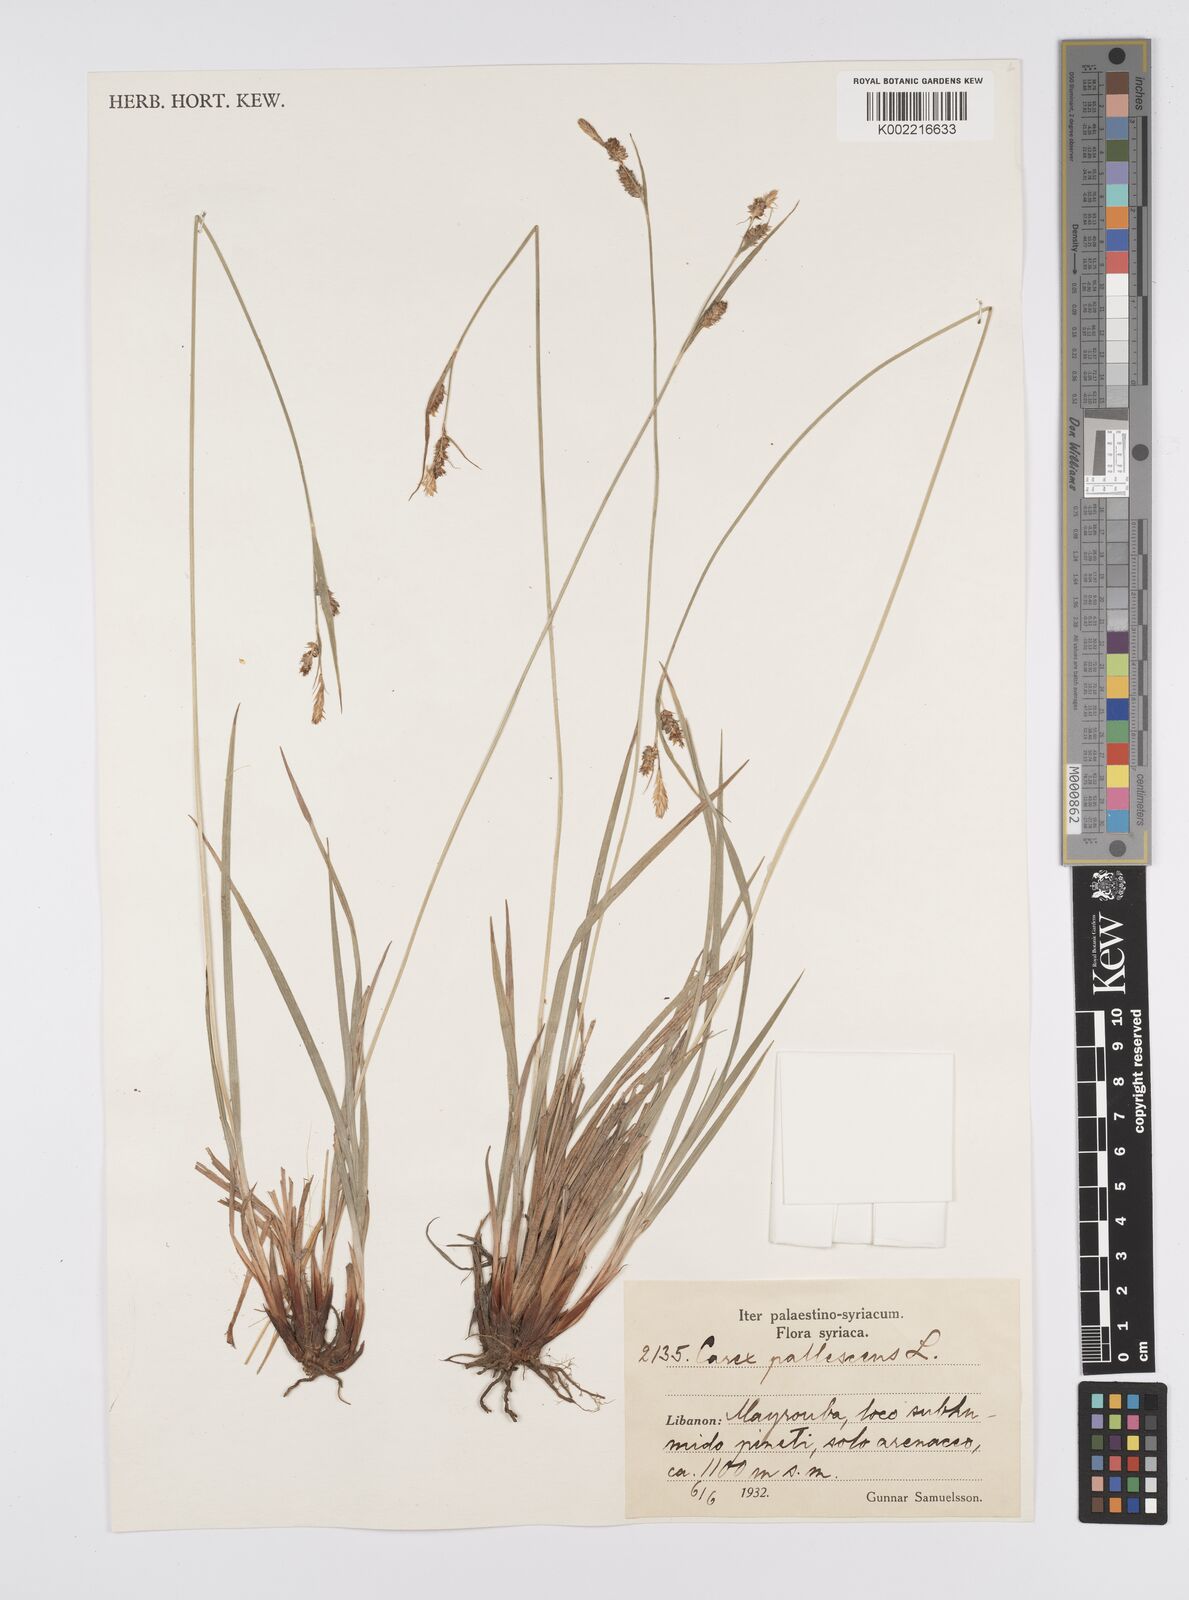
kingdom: Plantae
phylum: Tracheophyta
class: Liliopsida
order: Poales
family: Cyperaceae
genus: Carex
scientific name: Carex pallescens
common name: Pale sedge
